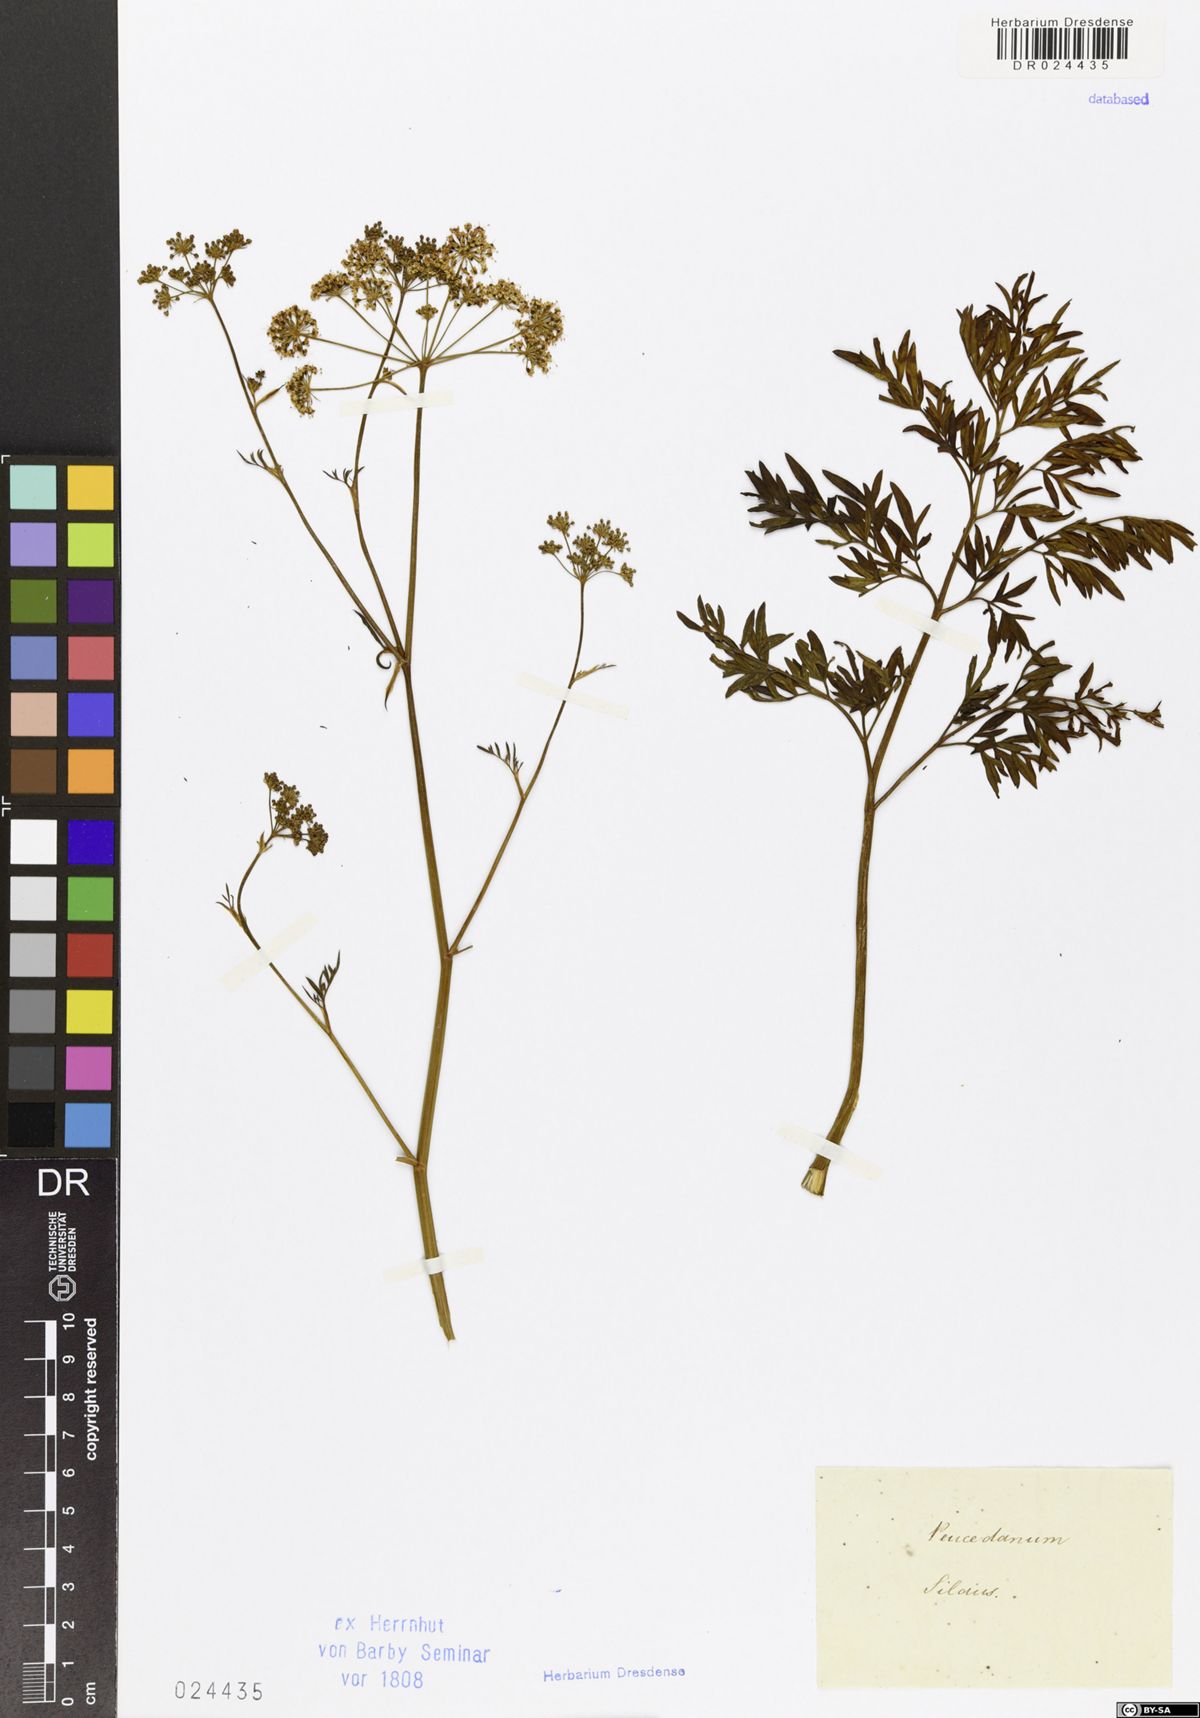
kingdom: Plantae
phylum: Tracheophyta
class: Magnoliopsida
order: Apiales
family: Apiaceae
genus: Silaum
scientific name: Silaum silaus
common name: Pepper-saxifrage
